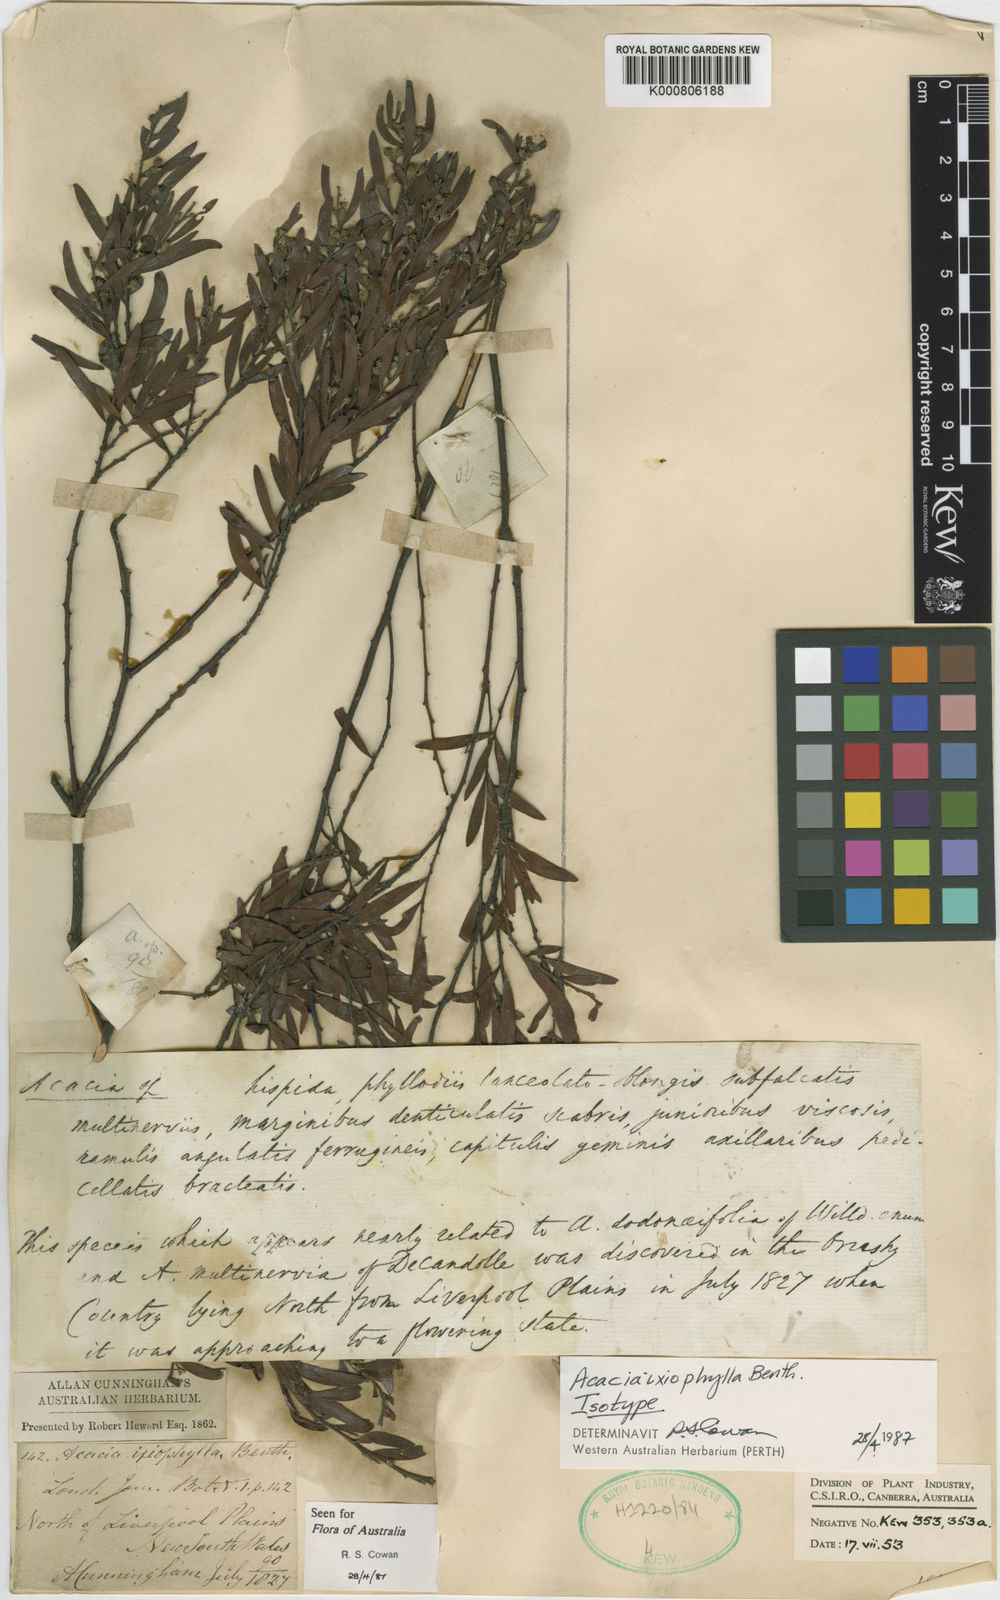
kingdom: Plantae
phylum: Tracheophyta
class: Magnoliopsida
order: Fabales
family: Fabaceae
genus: Acacia
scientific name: Acacia ixiophylla
